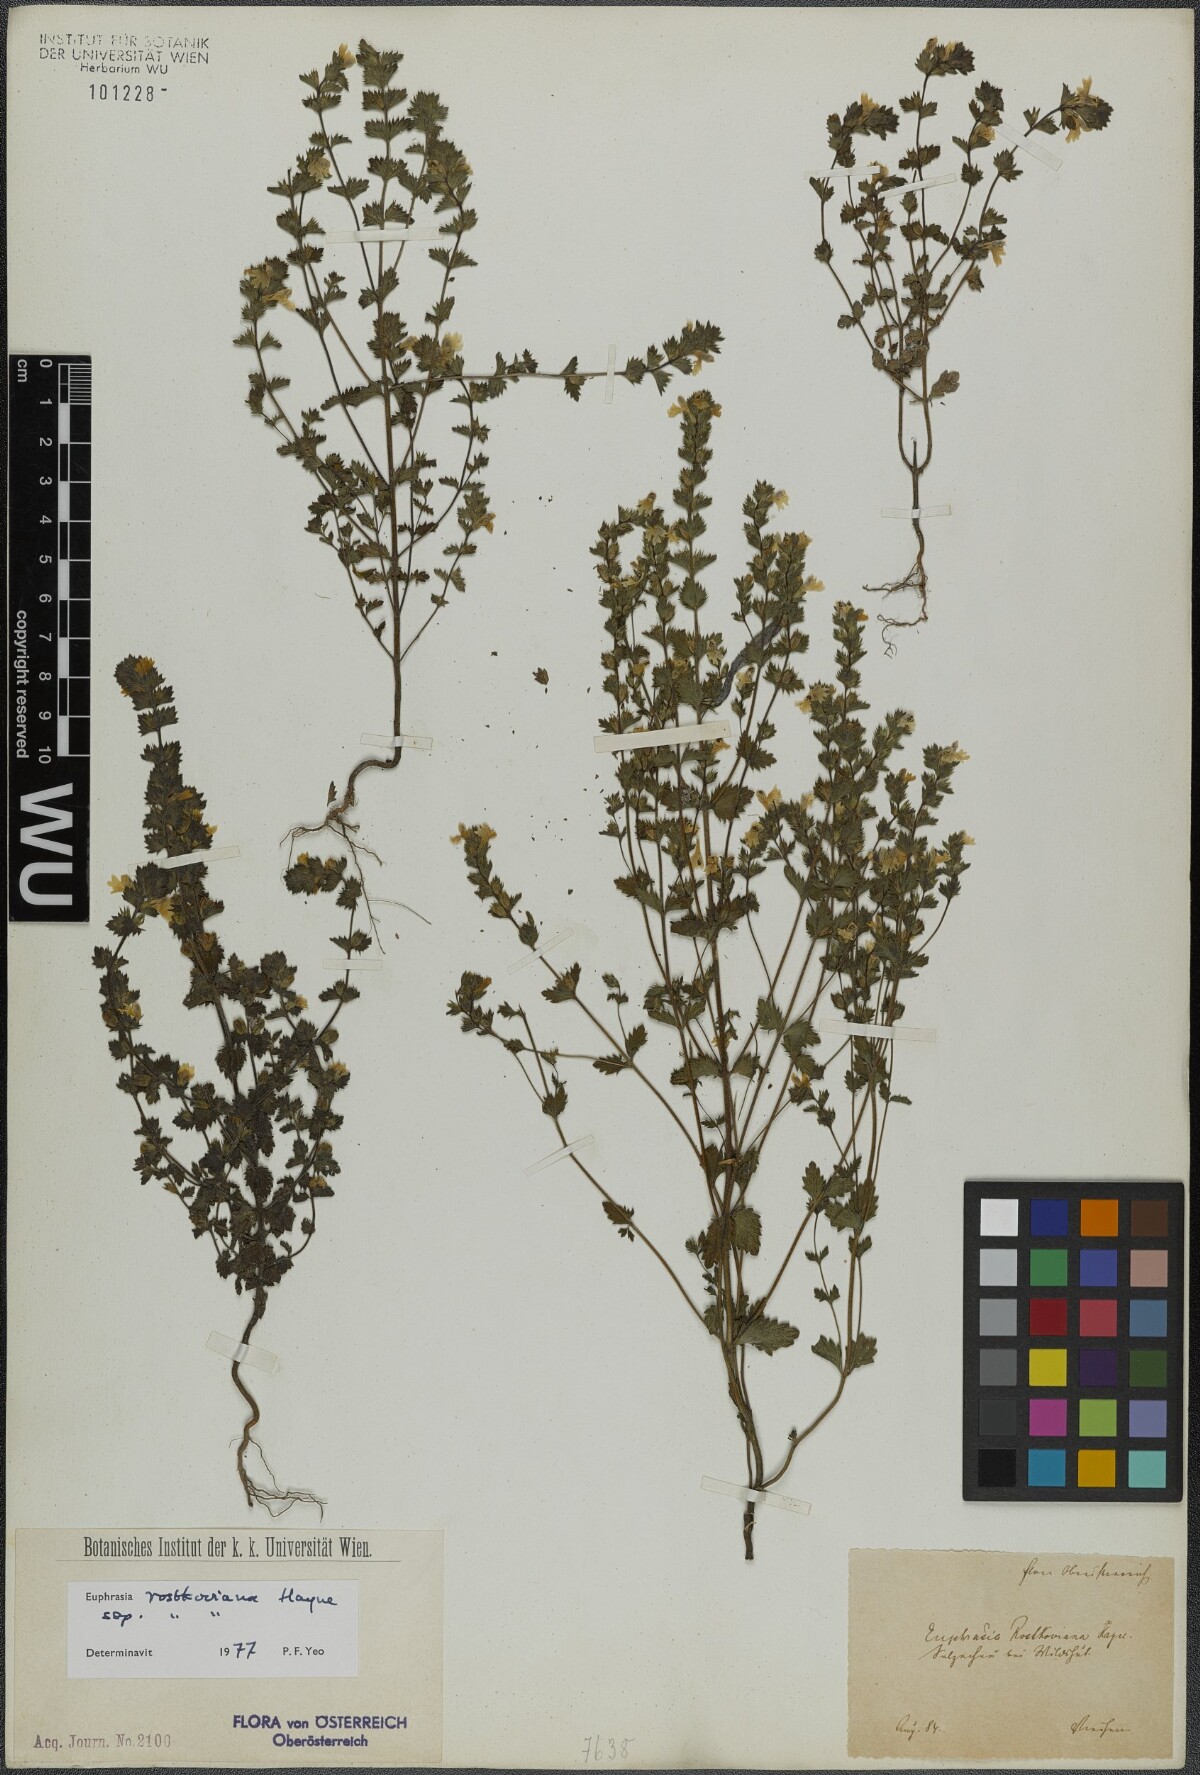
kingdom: Plantae
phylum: Tracheophyta
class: Magnoliopsida
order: Lamiales
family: Orobanchaceae
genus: Euphrasia
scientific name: Euphrasia officinalis
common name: Eyebright
